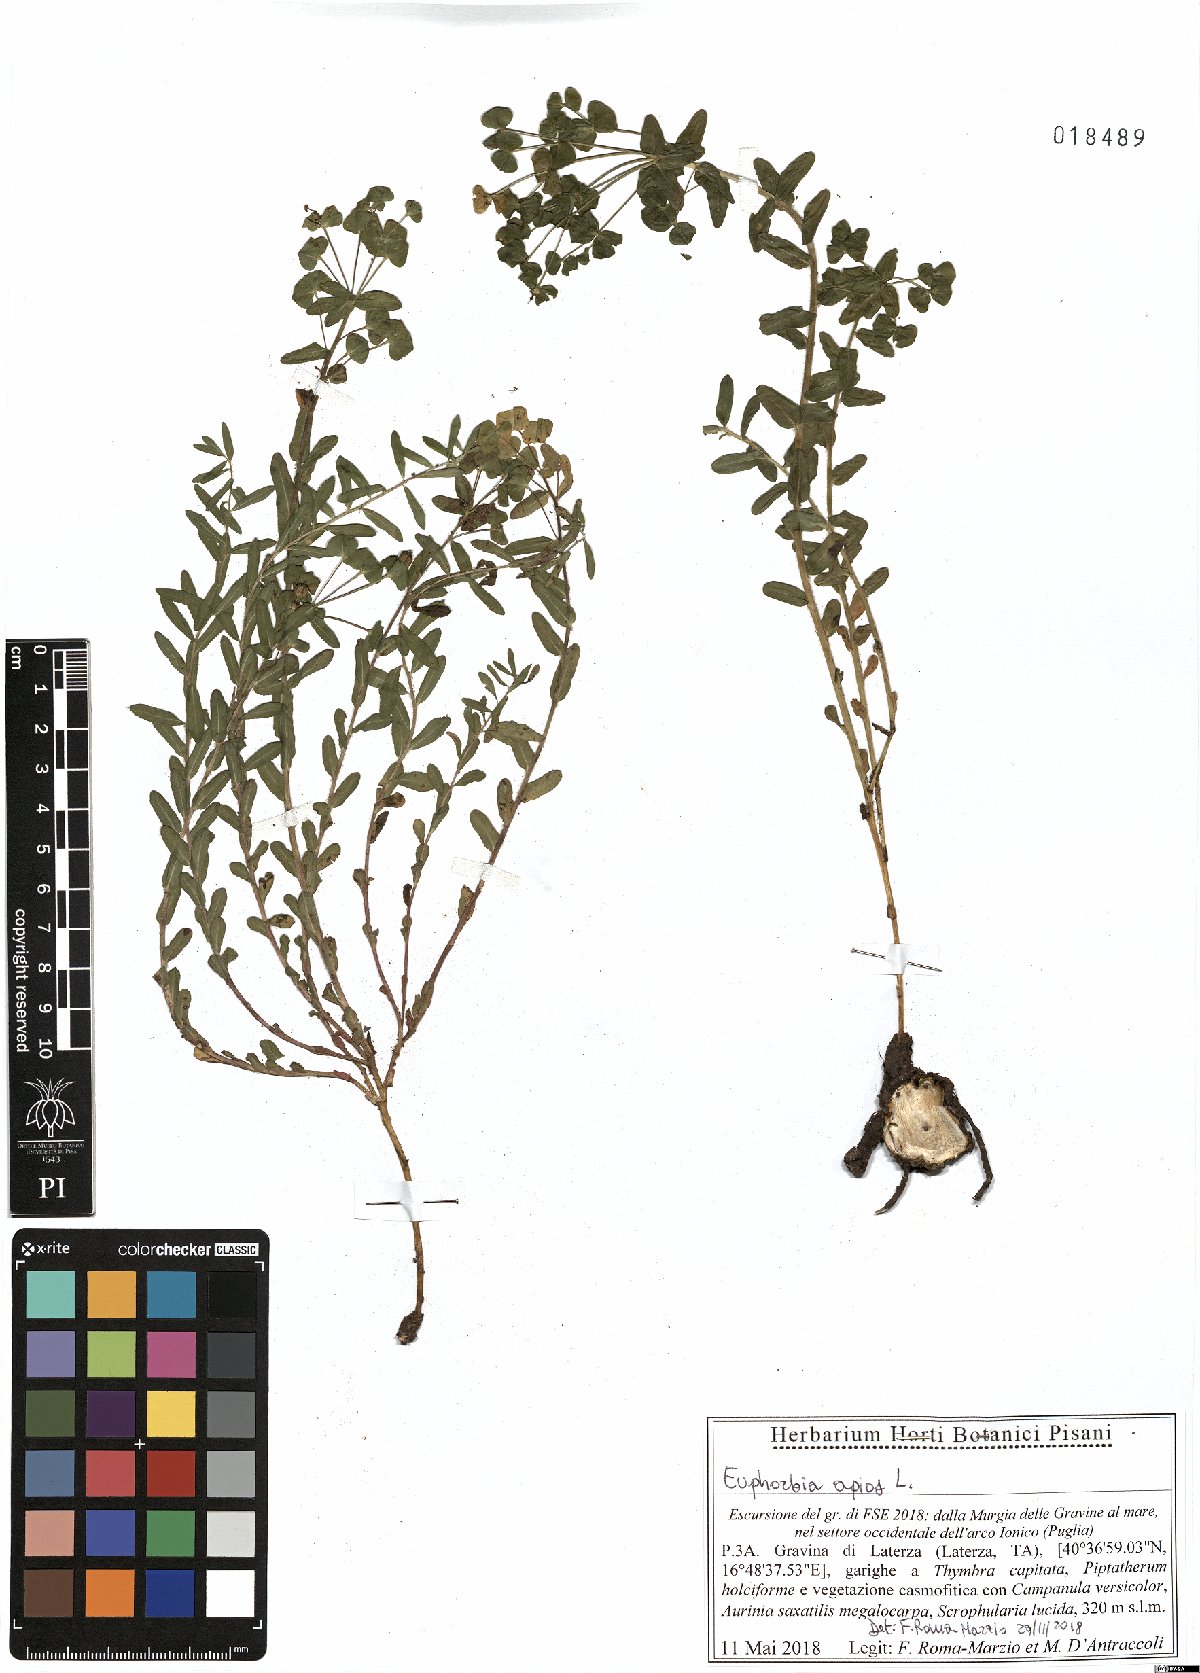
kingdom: Plantae
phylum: Tracheophyta
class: Magnoliopsida
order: Malpighiales
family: Euphorbiaceae
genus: Euphorbia
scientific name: Euphorbia apios
